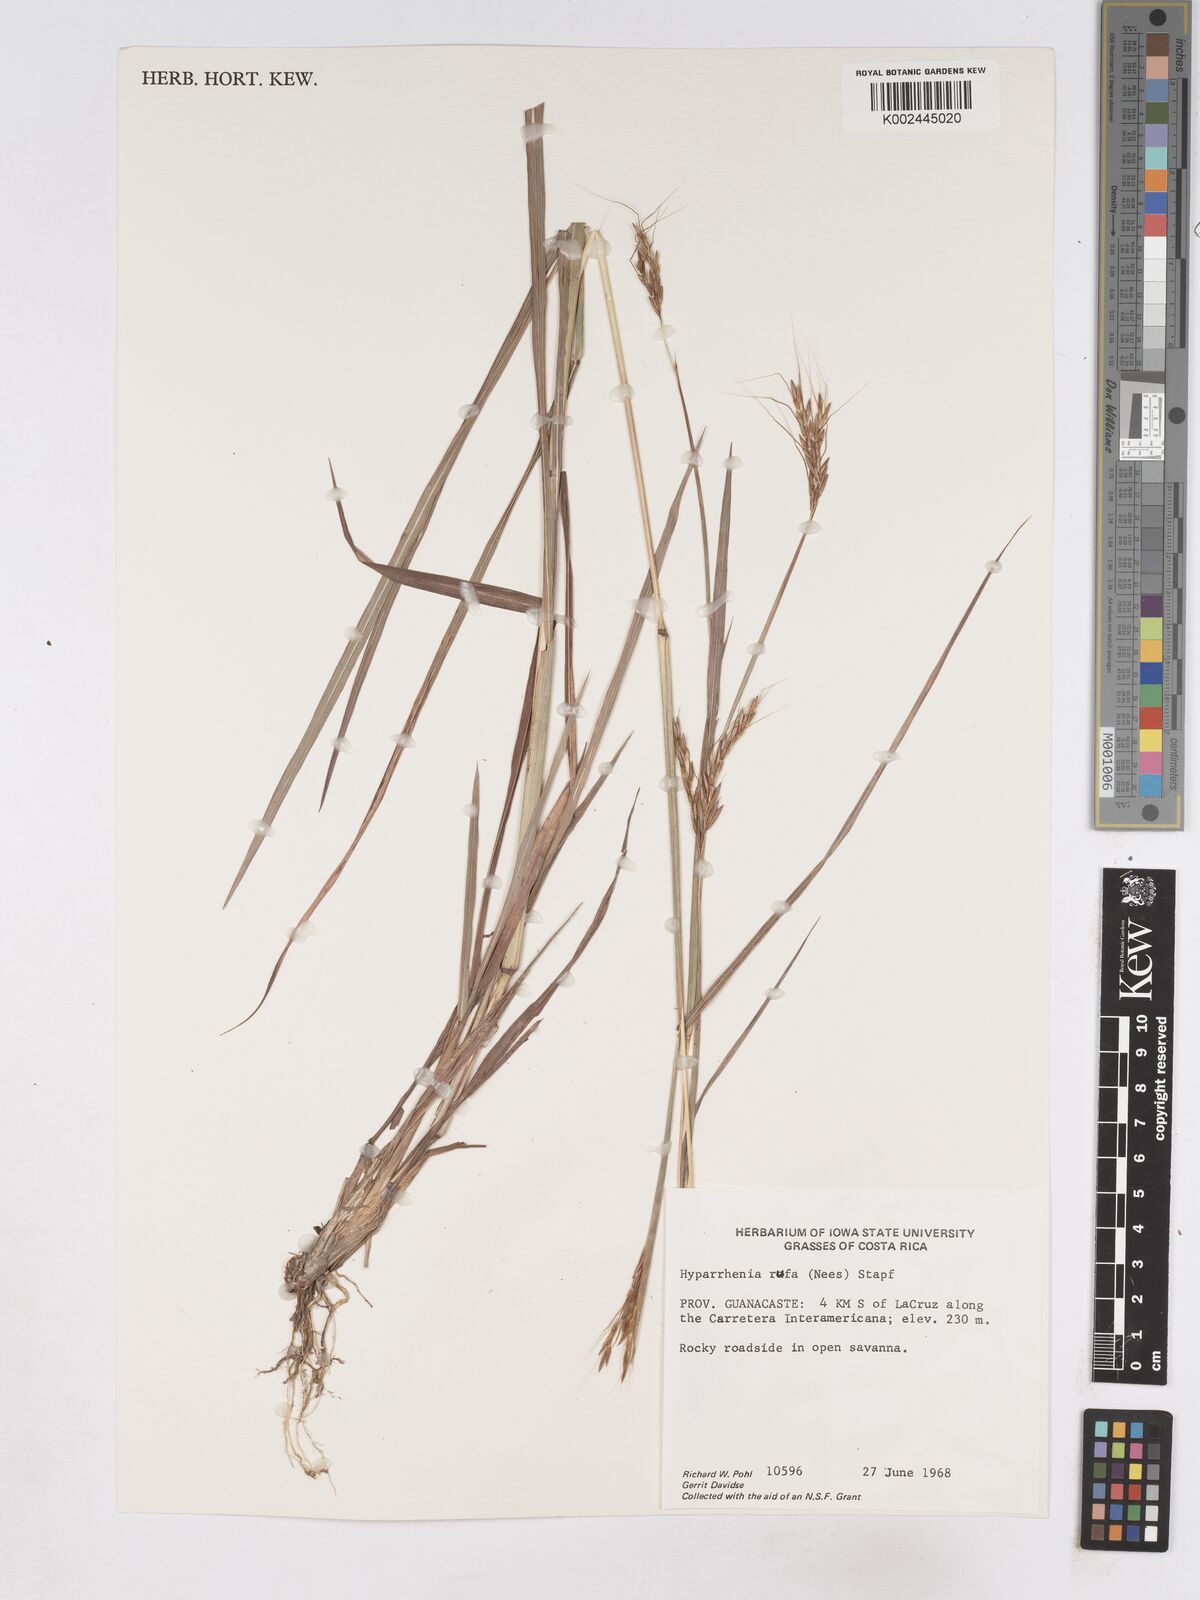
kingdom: Plantae
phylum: Tracheophyta
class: Liliopsida
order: Poales
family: Poaceae
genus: Hyparrhenia
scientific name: Hyparrhenia rufa
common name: Jaraguagrass
